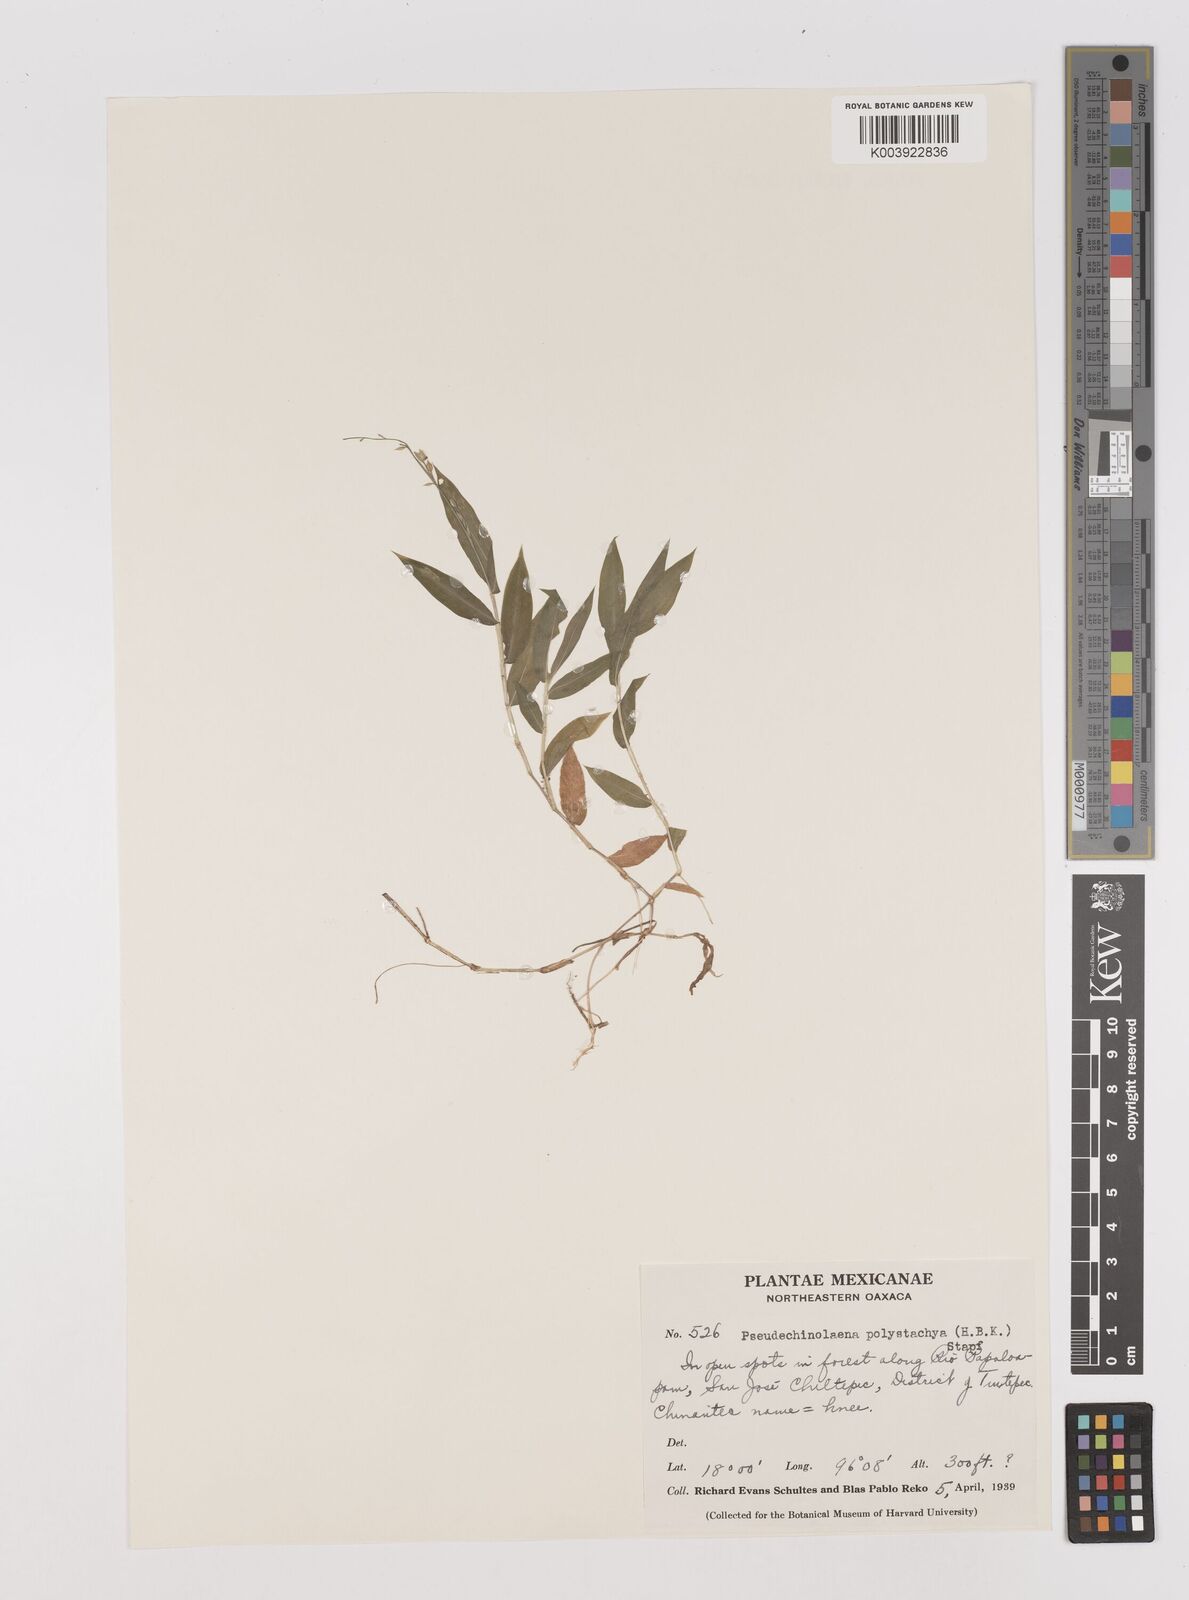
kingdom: Plantae
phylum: Tracheophyta
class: Liliopsida
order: Poales
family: Poaceae
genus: Pseudechinolaena
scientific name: Pseudechinolaena polystachya
